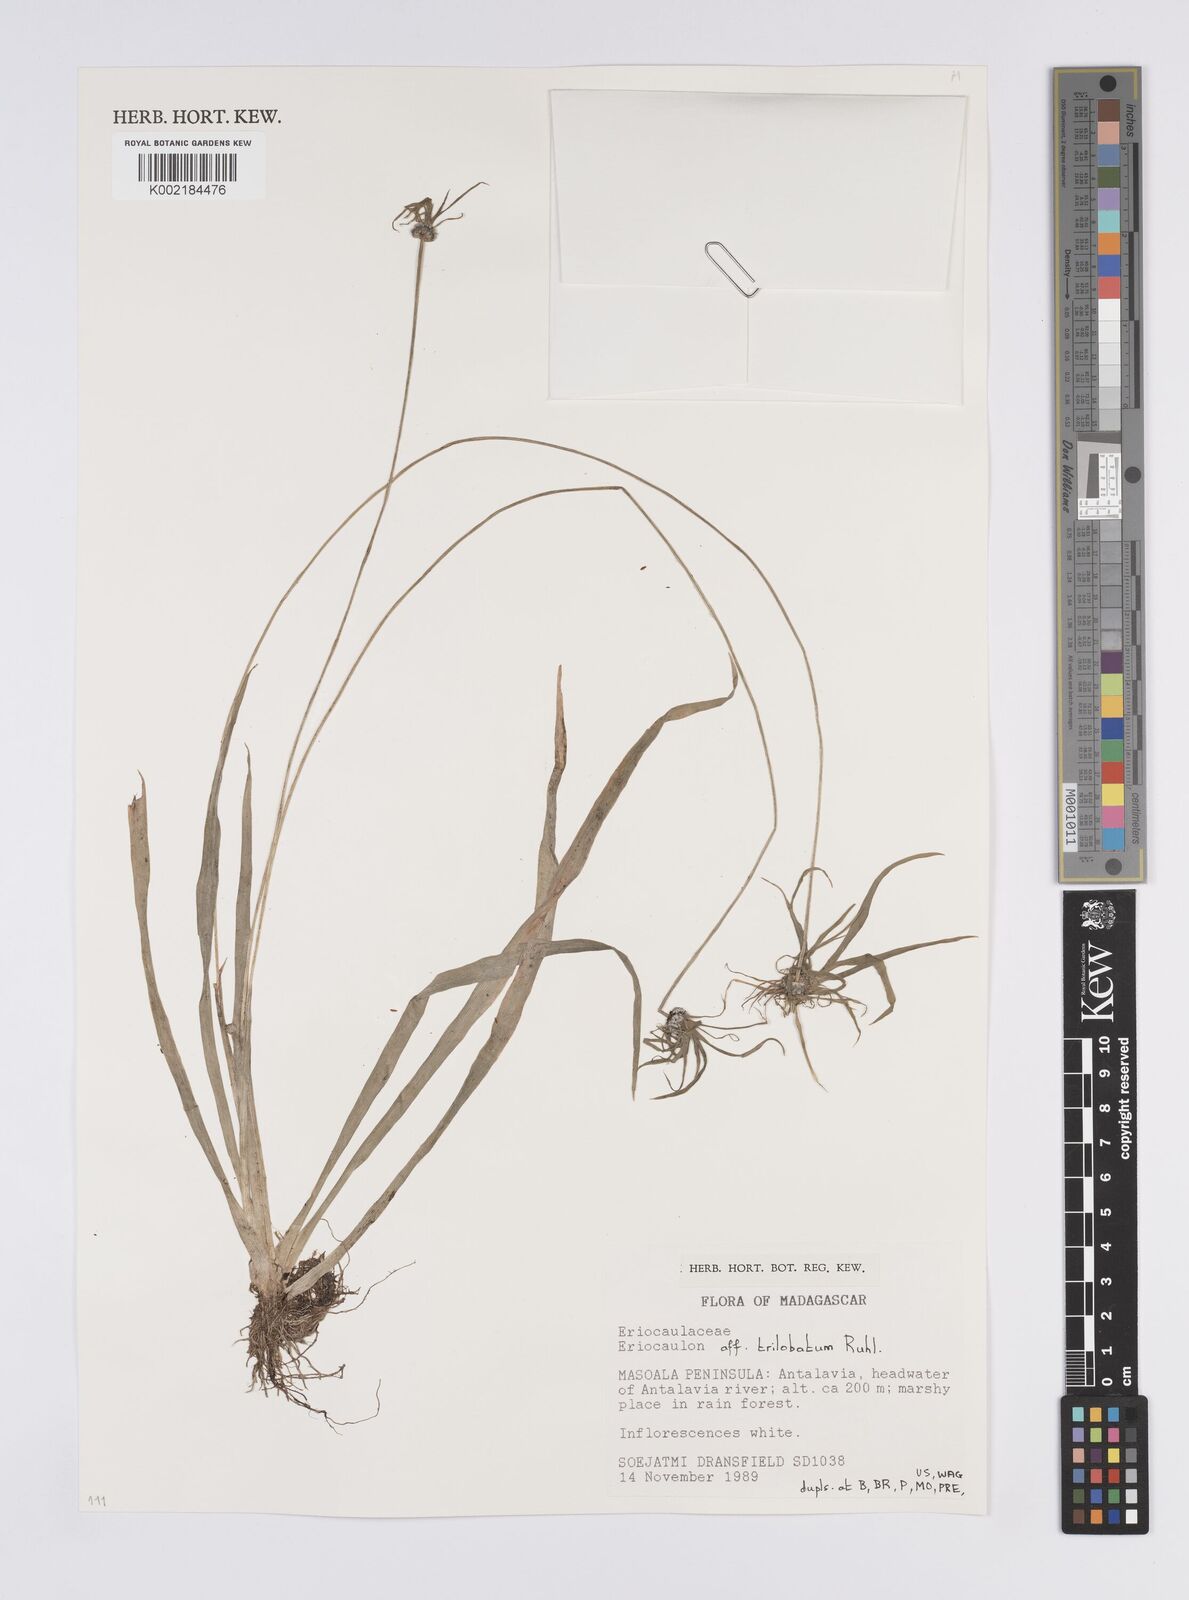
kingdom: Plantae
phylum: Tracheophyta
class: Liliopsida
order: Poales
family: Eriocaulaceae
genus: Eriocaulon
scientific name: Eriocaulon trilobatum
